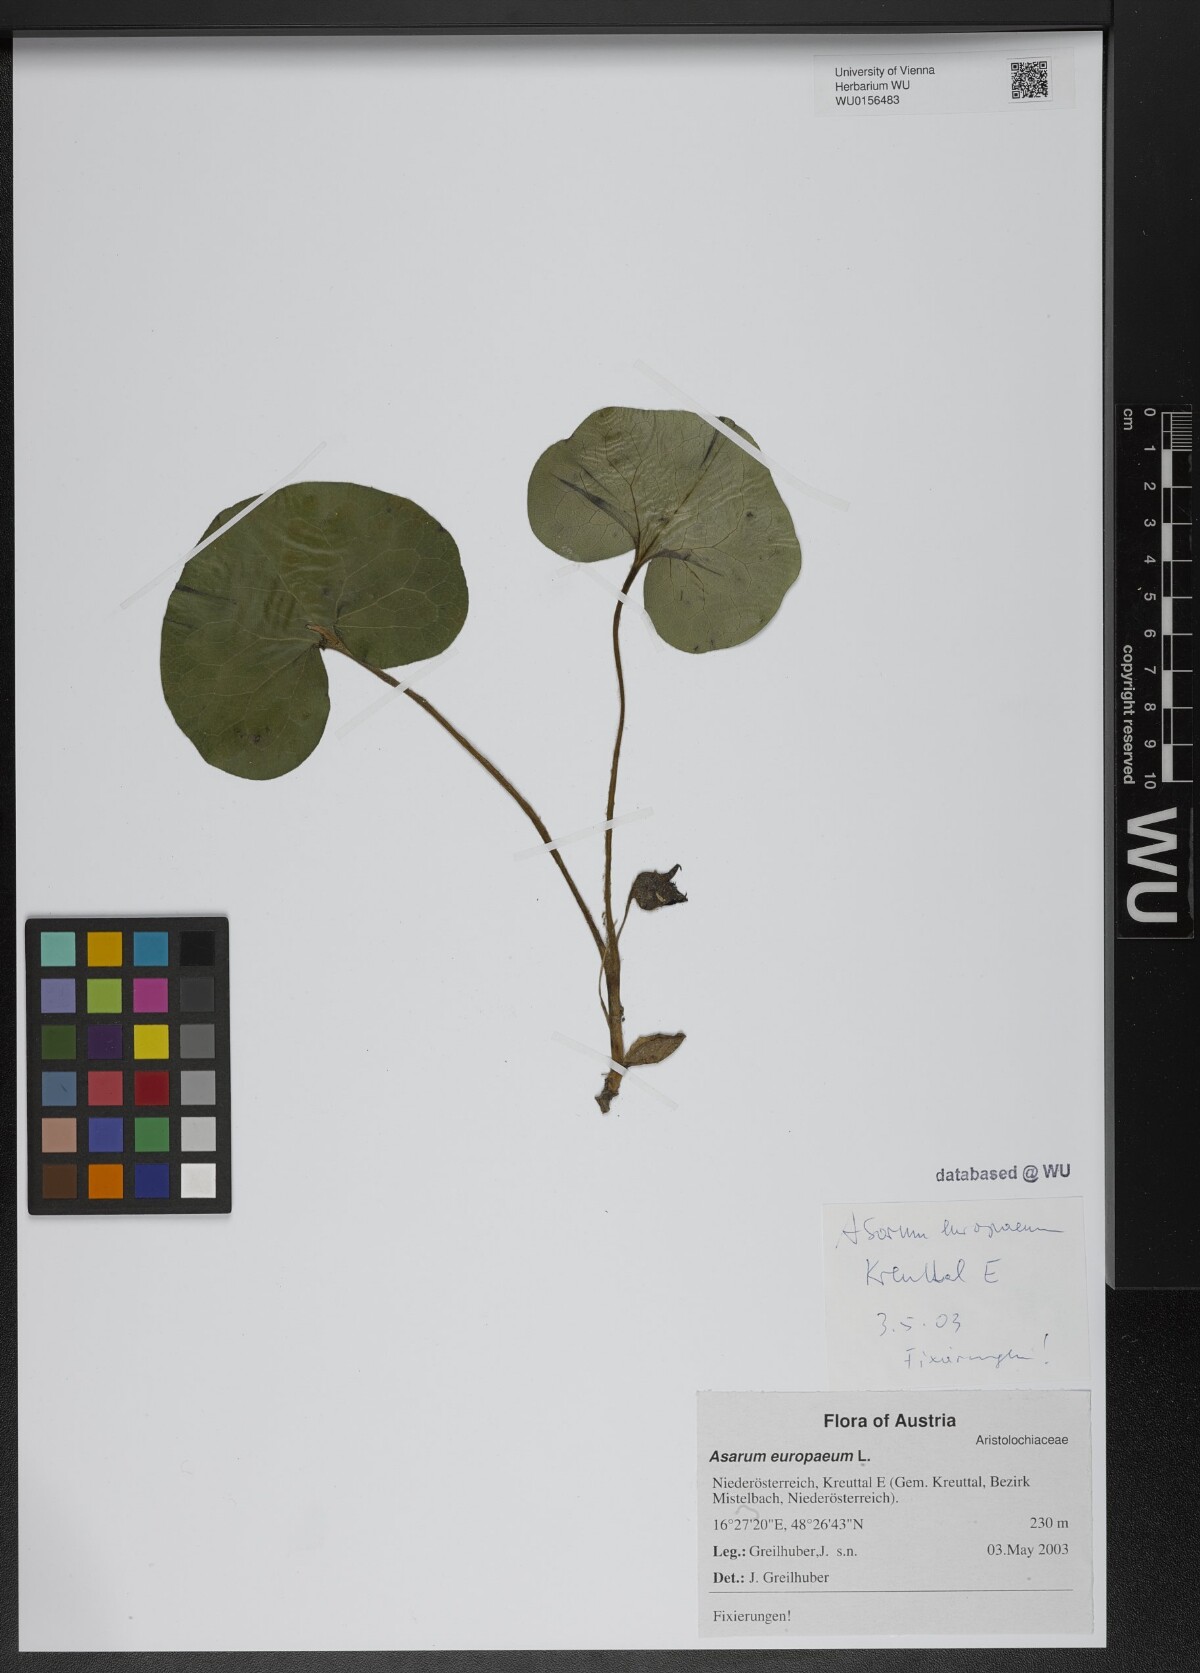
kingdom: Plantae
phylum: Tracheophyta
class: Magnoliopsida
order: Piperales
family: Aristolochiaceae
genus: Asarum
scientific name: Asarum europaeum
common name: Asarabacca
